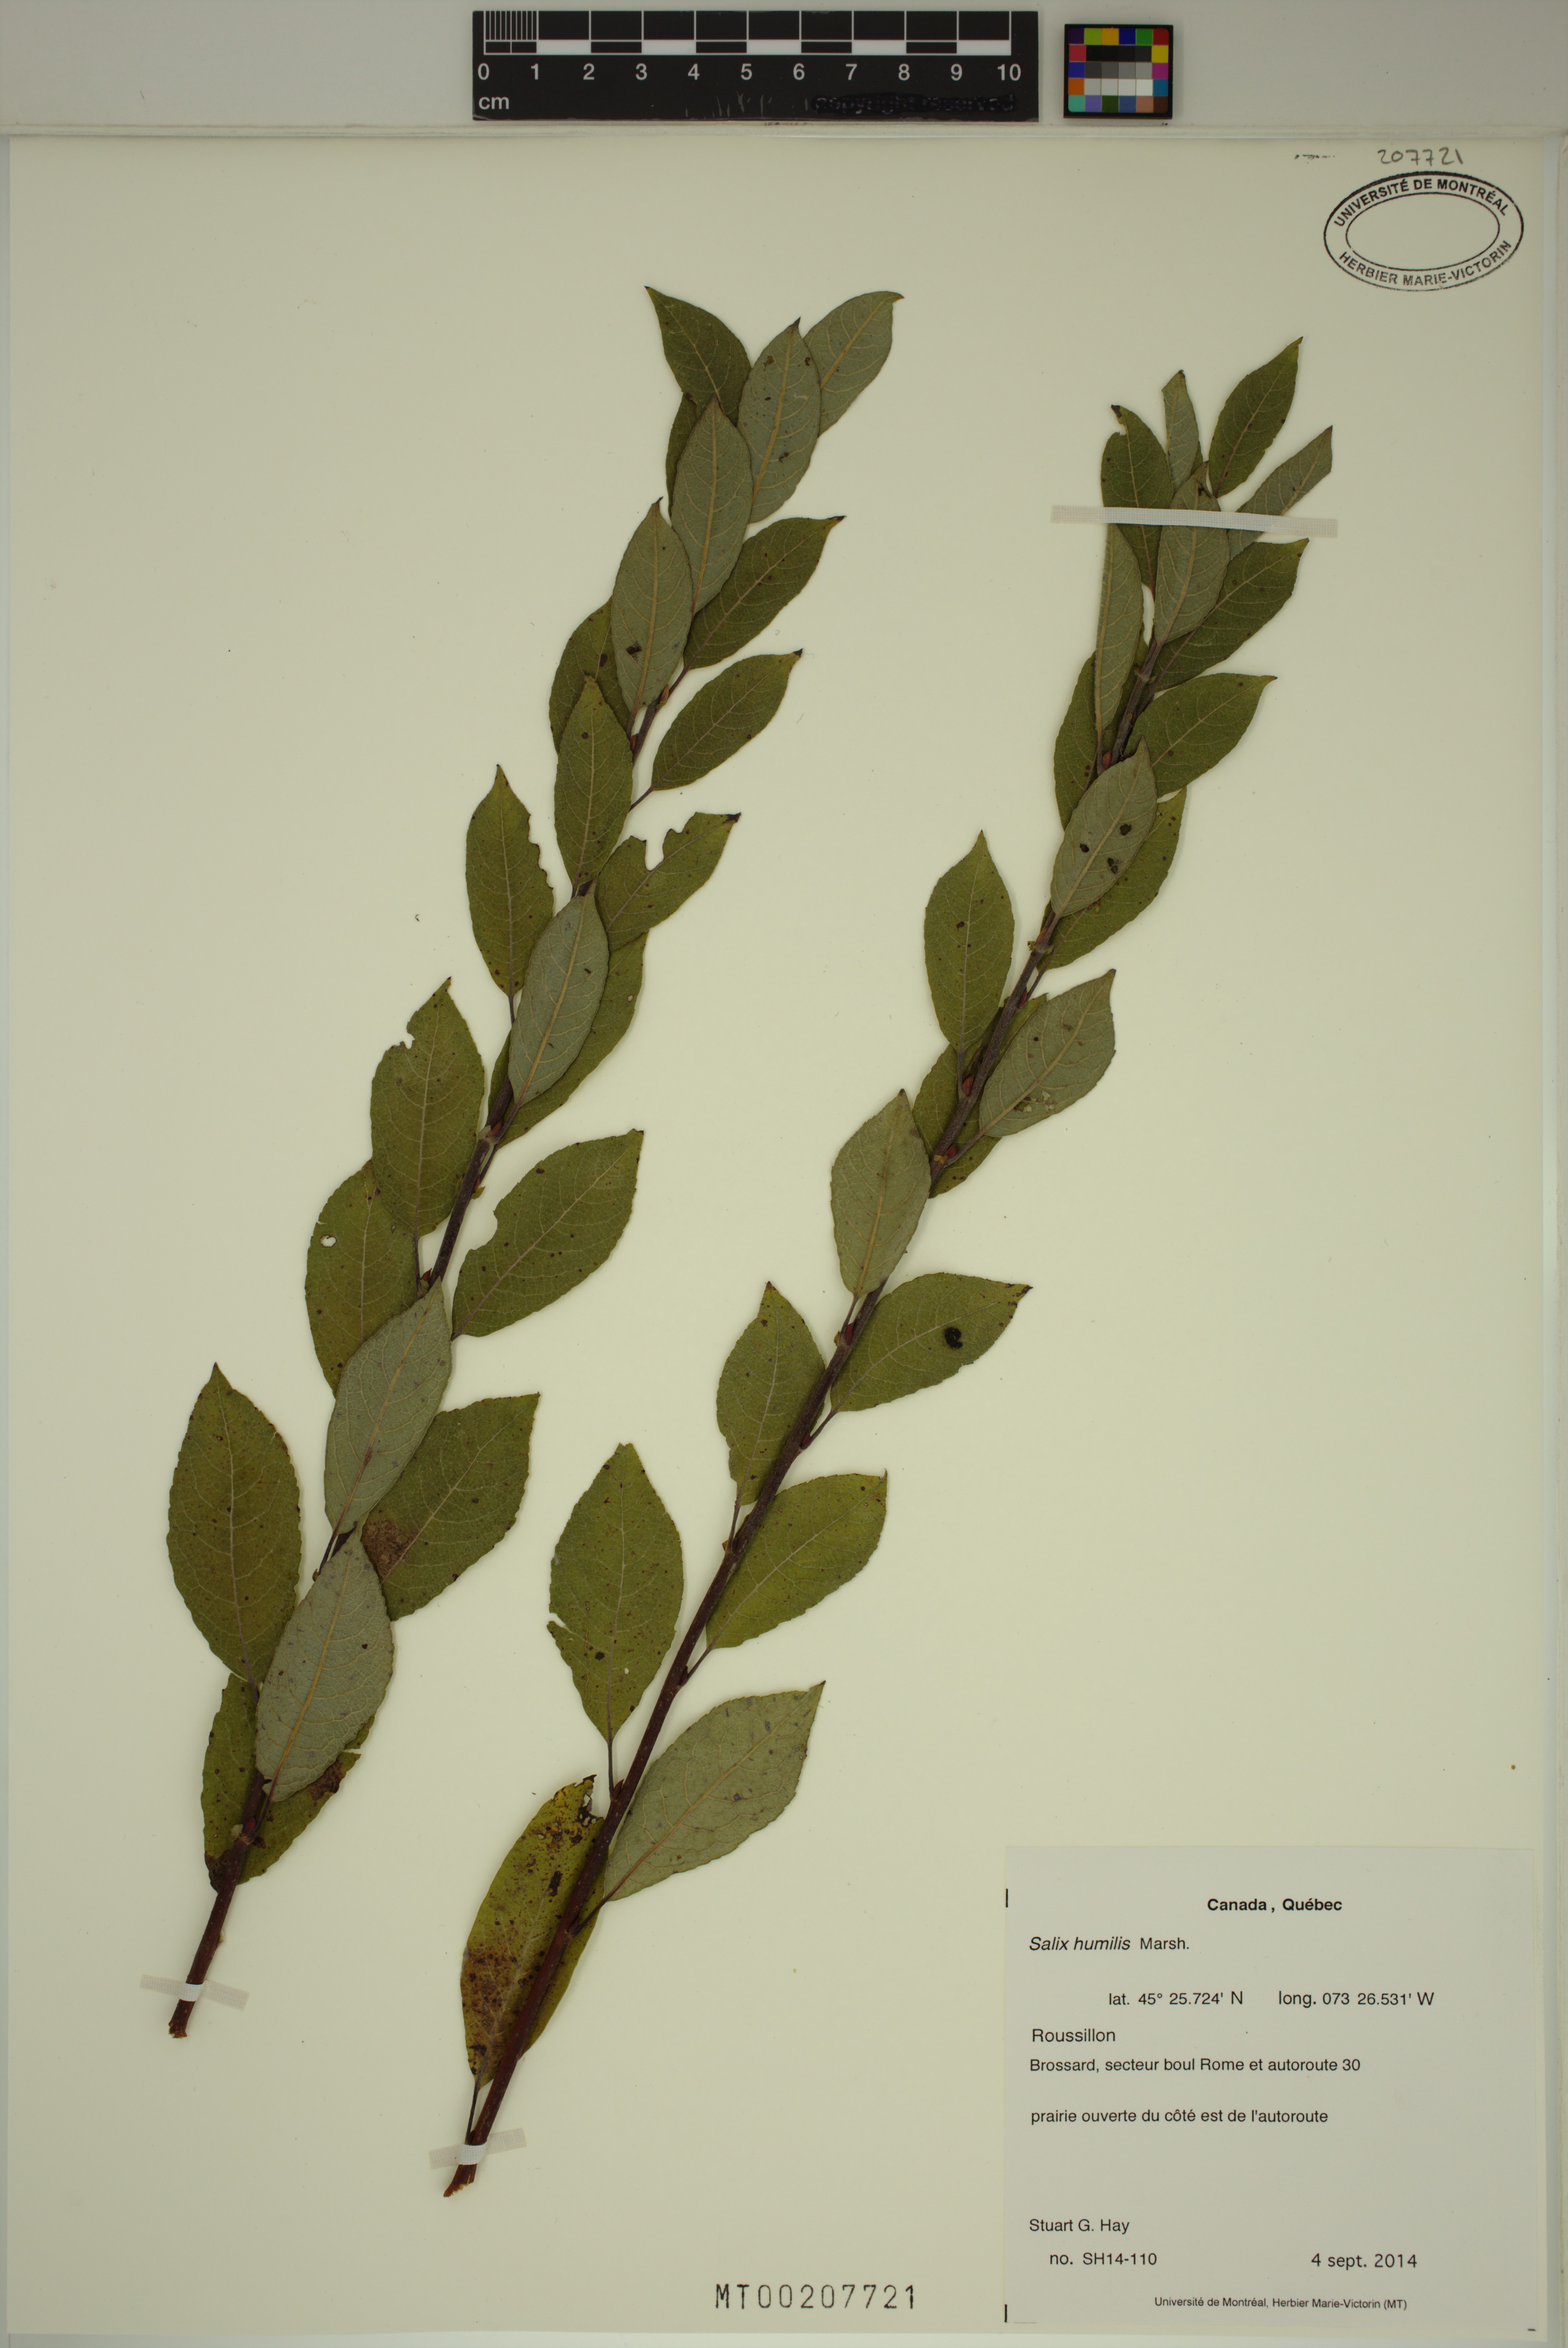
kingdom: Plantae
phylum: Tracheophyta
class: Magnoliopsida
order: Malpighiales
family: Salicaceae
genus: Salix
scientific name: Salix humilis
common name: Prairie willow
